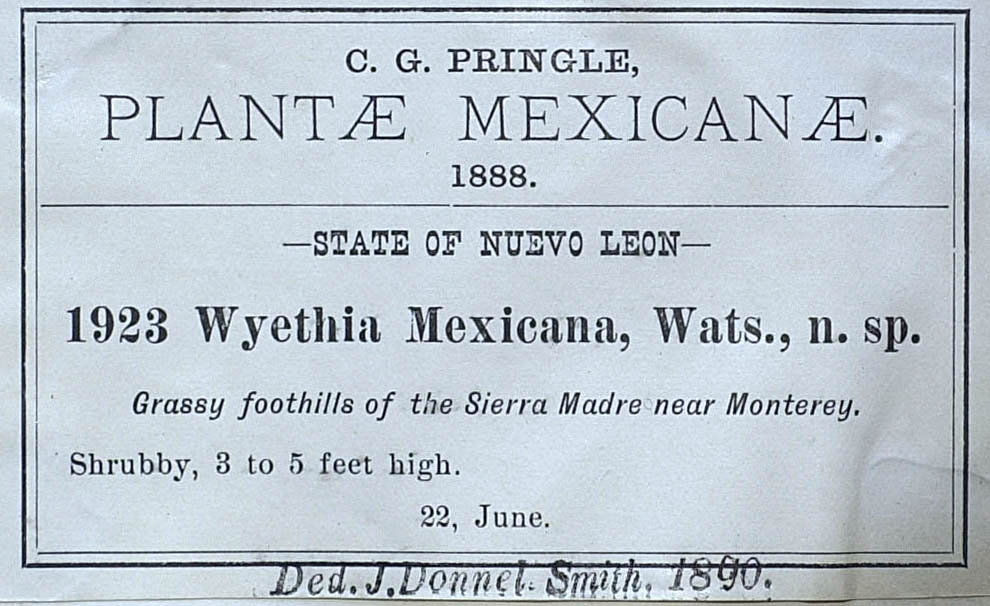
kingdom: Plantae
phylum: Tracheophyta
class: Magnoliopsida
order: Asterales
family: Asteraceae
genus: Vigethia
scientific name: Vigethia mexicana
